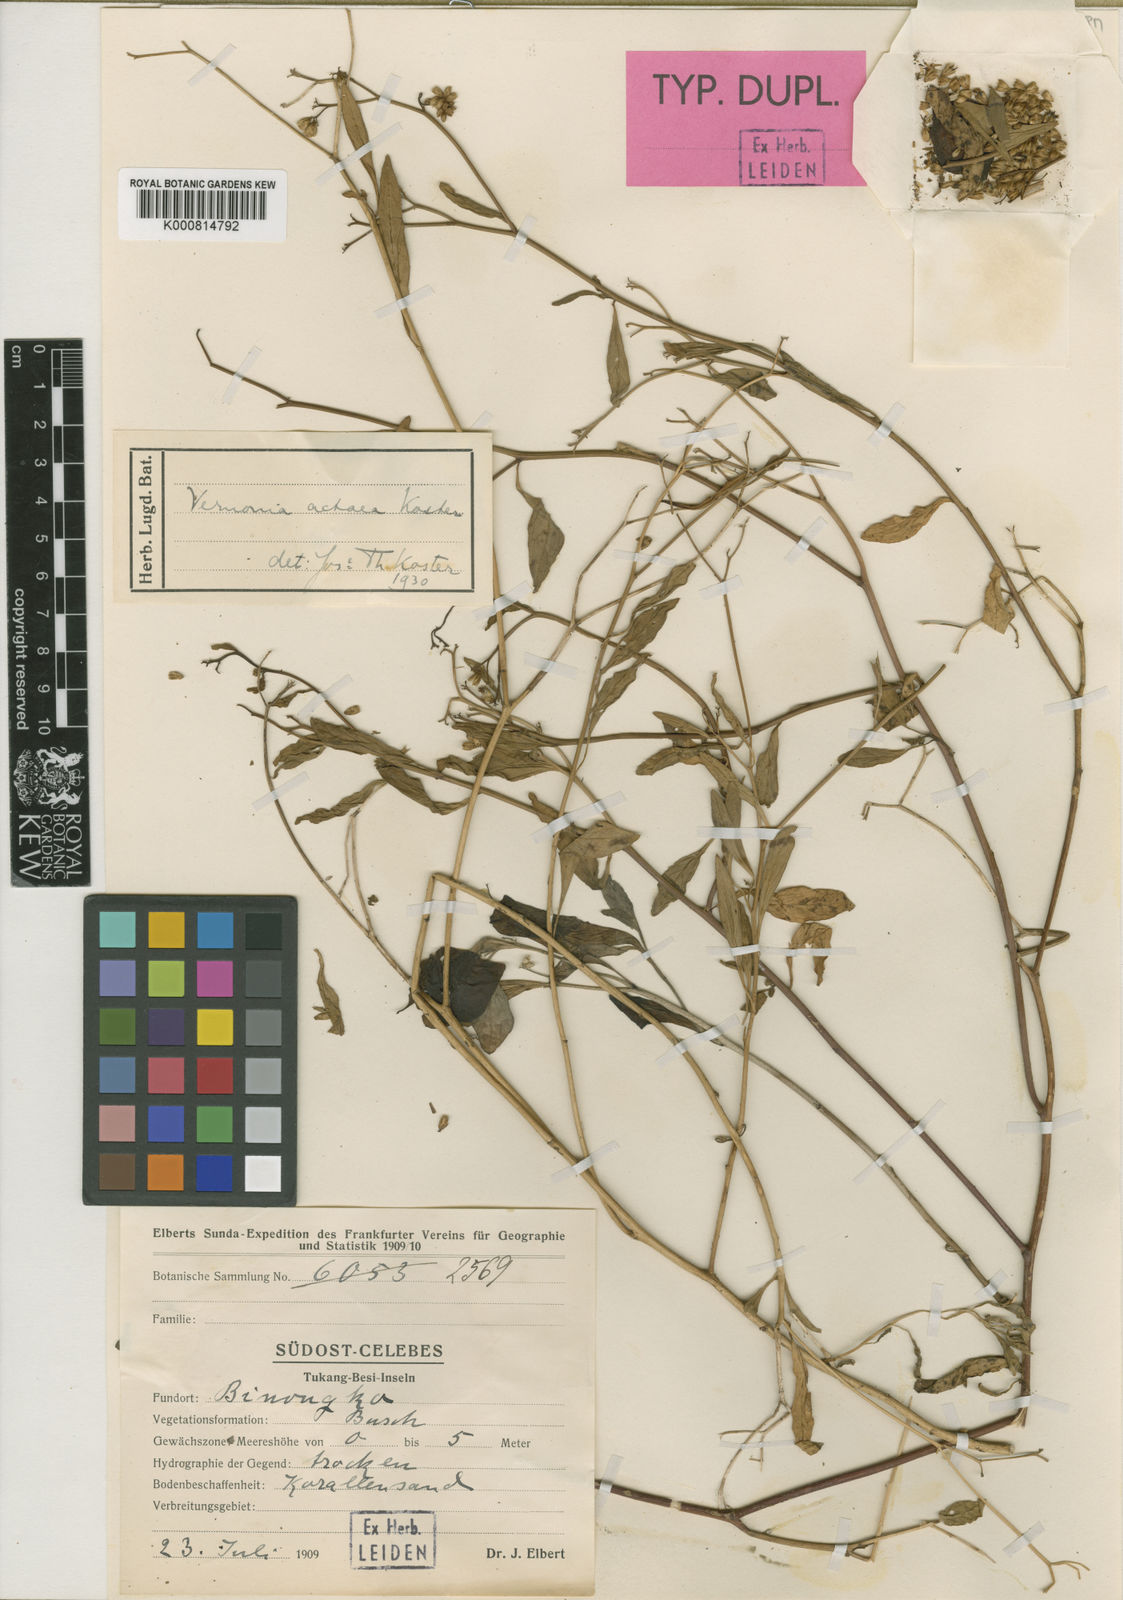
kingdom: Plantae
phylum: Tracheophyta
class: Magnoliopsida
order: Asterales
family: Asteraceae
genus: Vernonia
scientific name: Vernonia actaea
